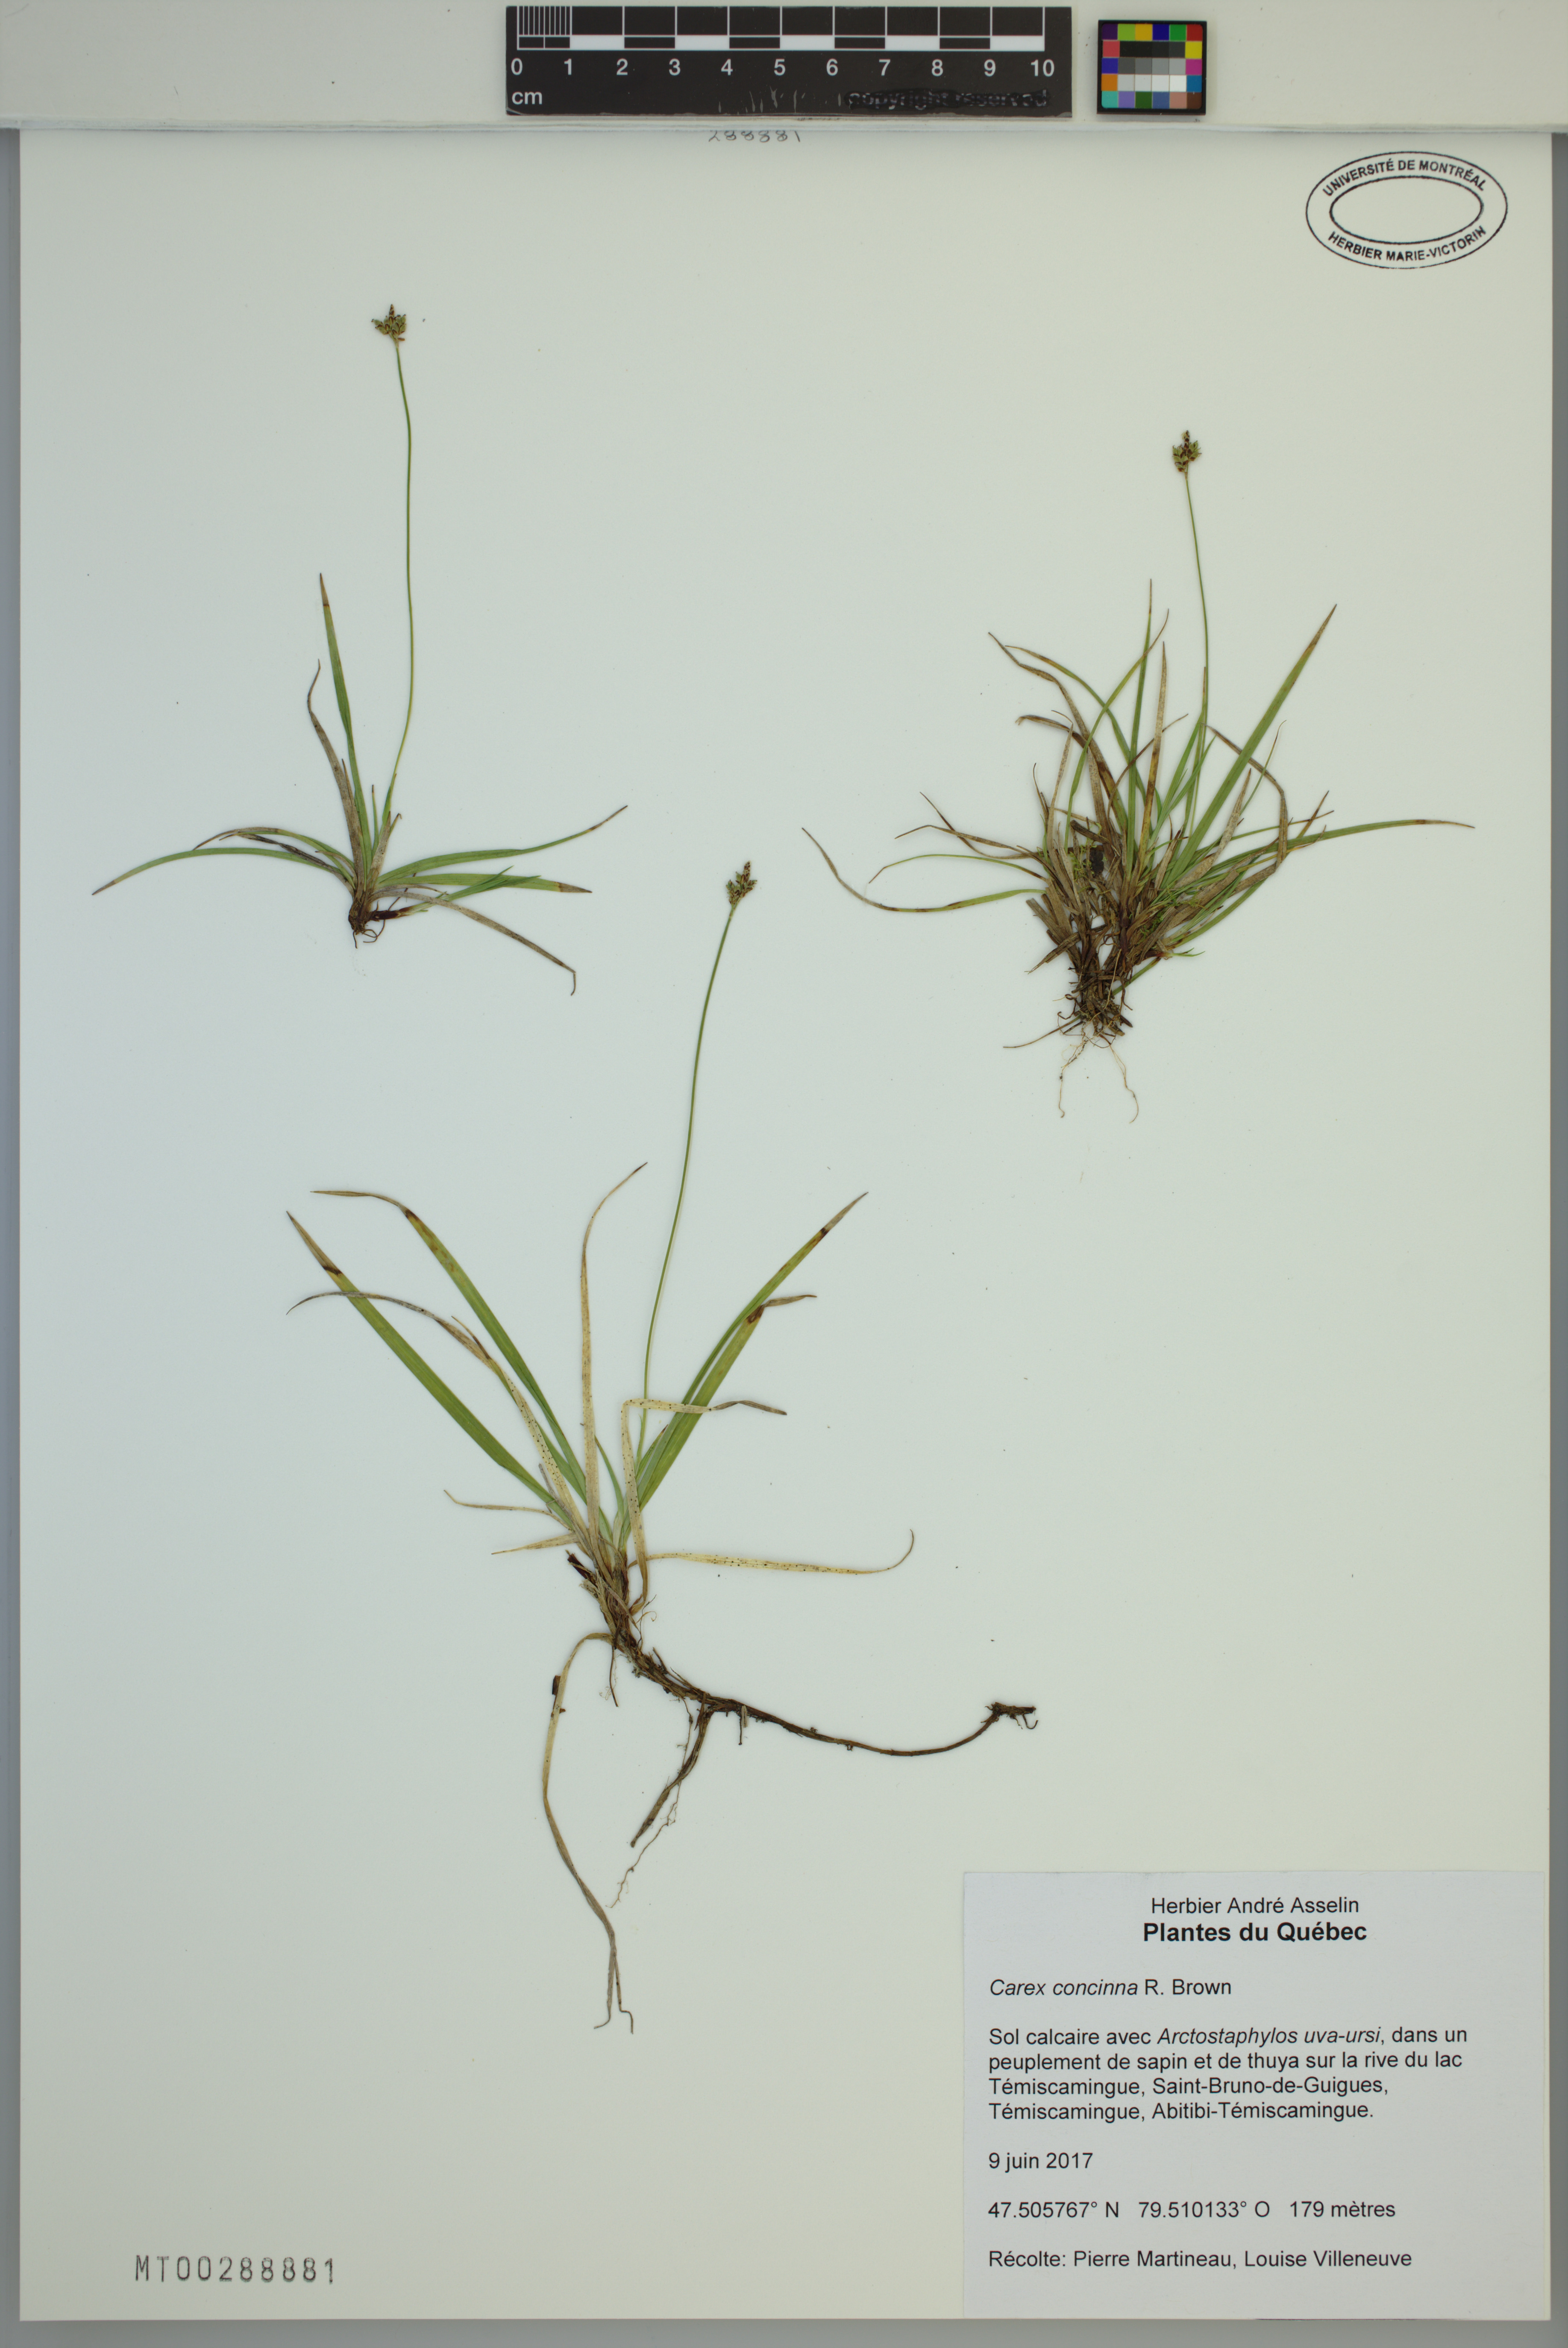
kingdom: Plantae
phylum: Tracheophyta
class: Liliopsida
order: Poales
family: Cyperaceae
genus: Carex
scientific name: Carex concinna
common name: Beautiful sedge
